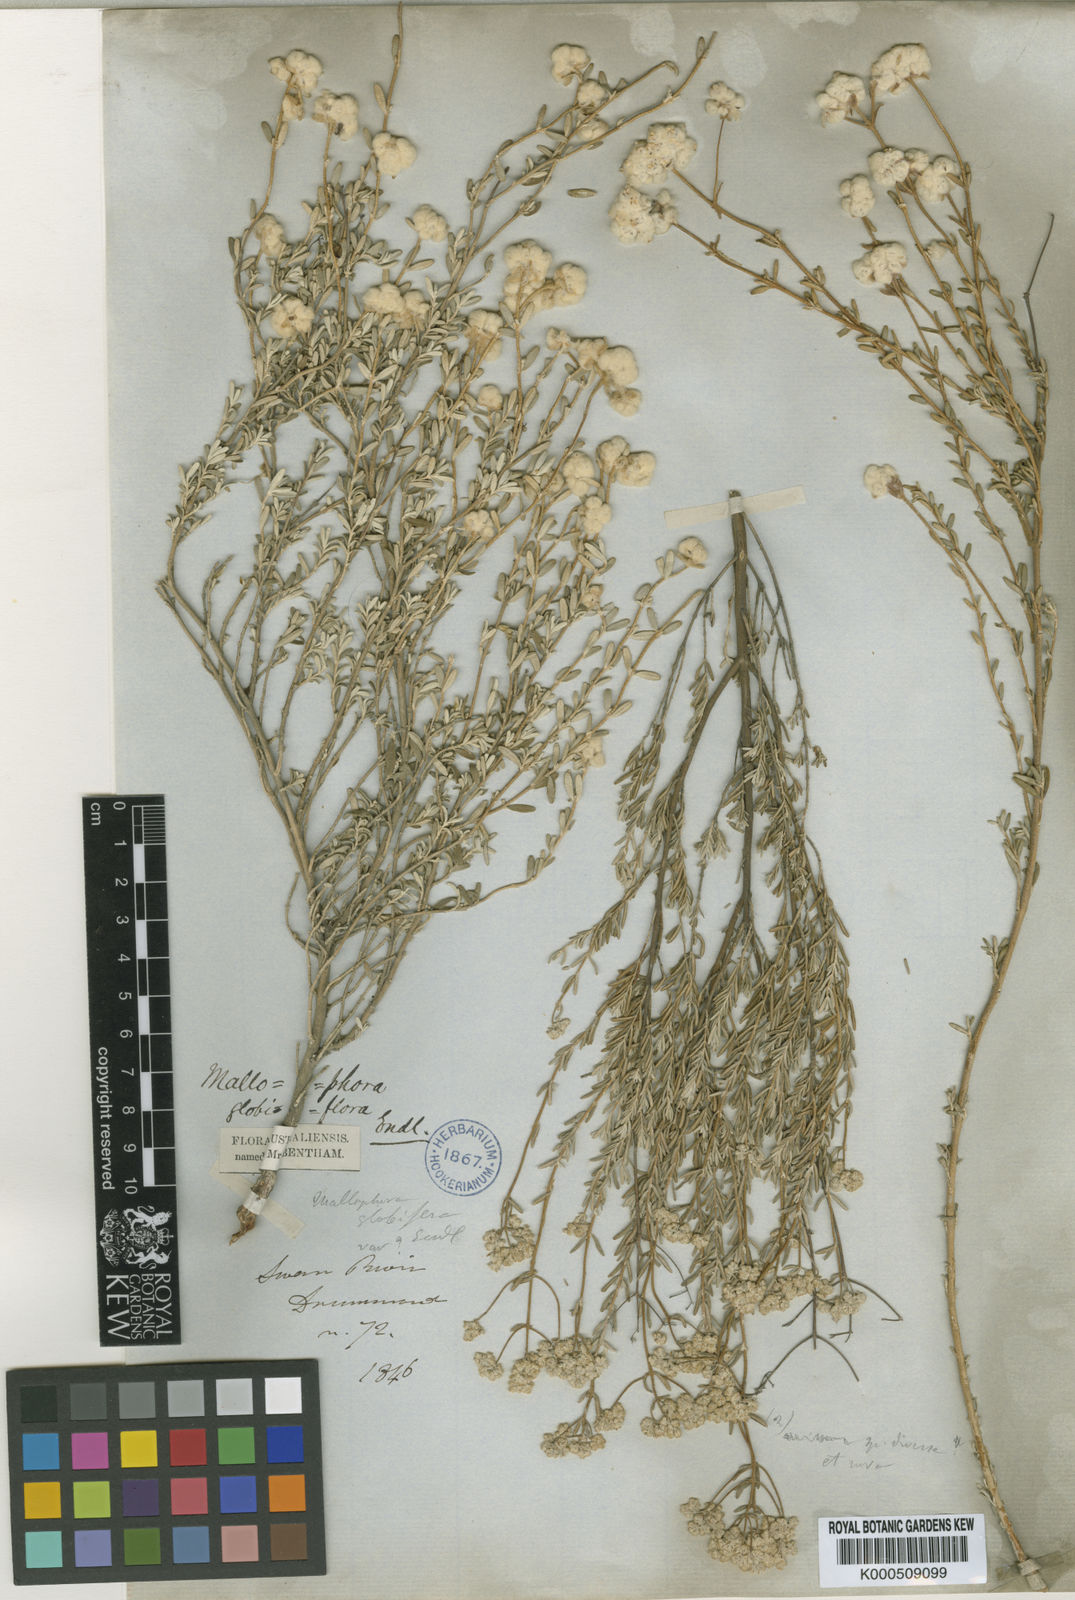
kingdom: Plantae
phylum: Tracheophyta
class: Magnoliopsida
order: Lamiales
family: Lamiaceae
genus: Dicrastylis
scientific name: Dicrastylis globiflora
